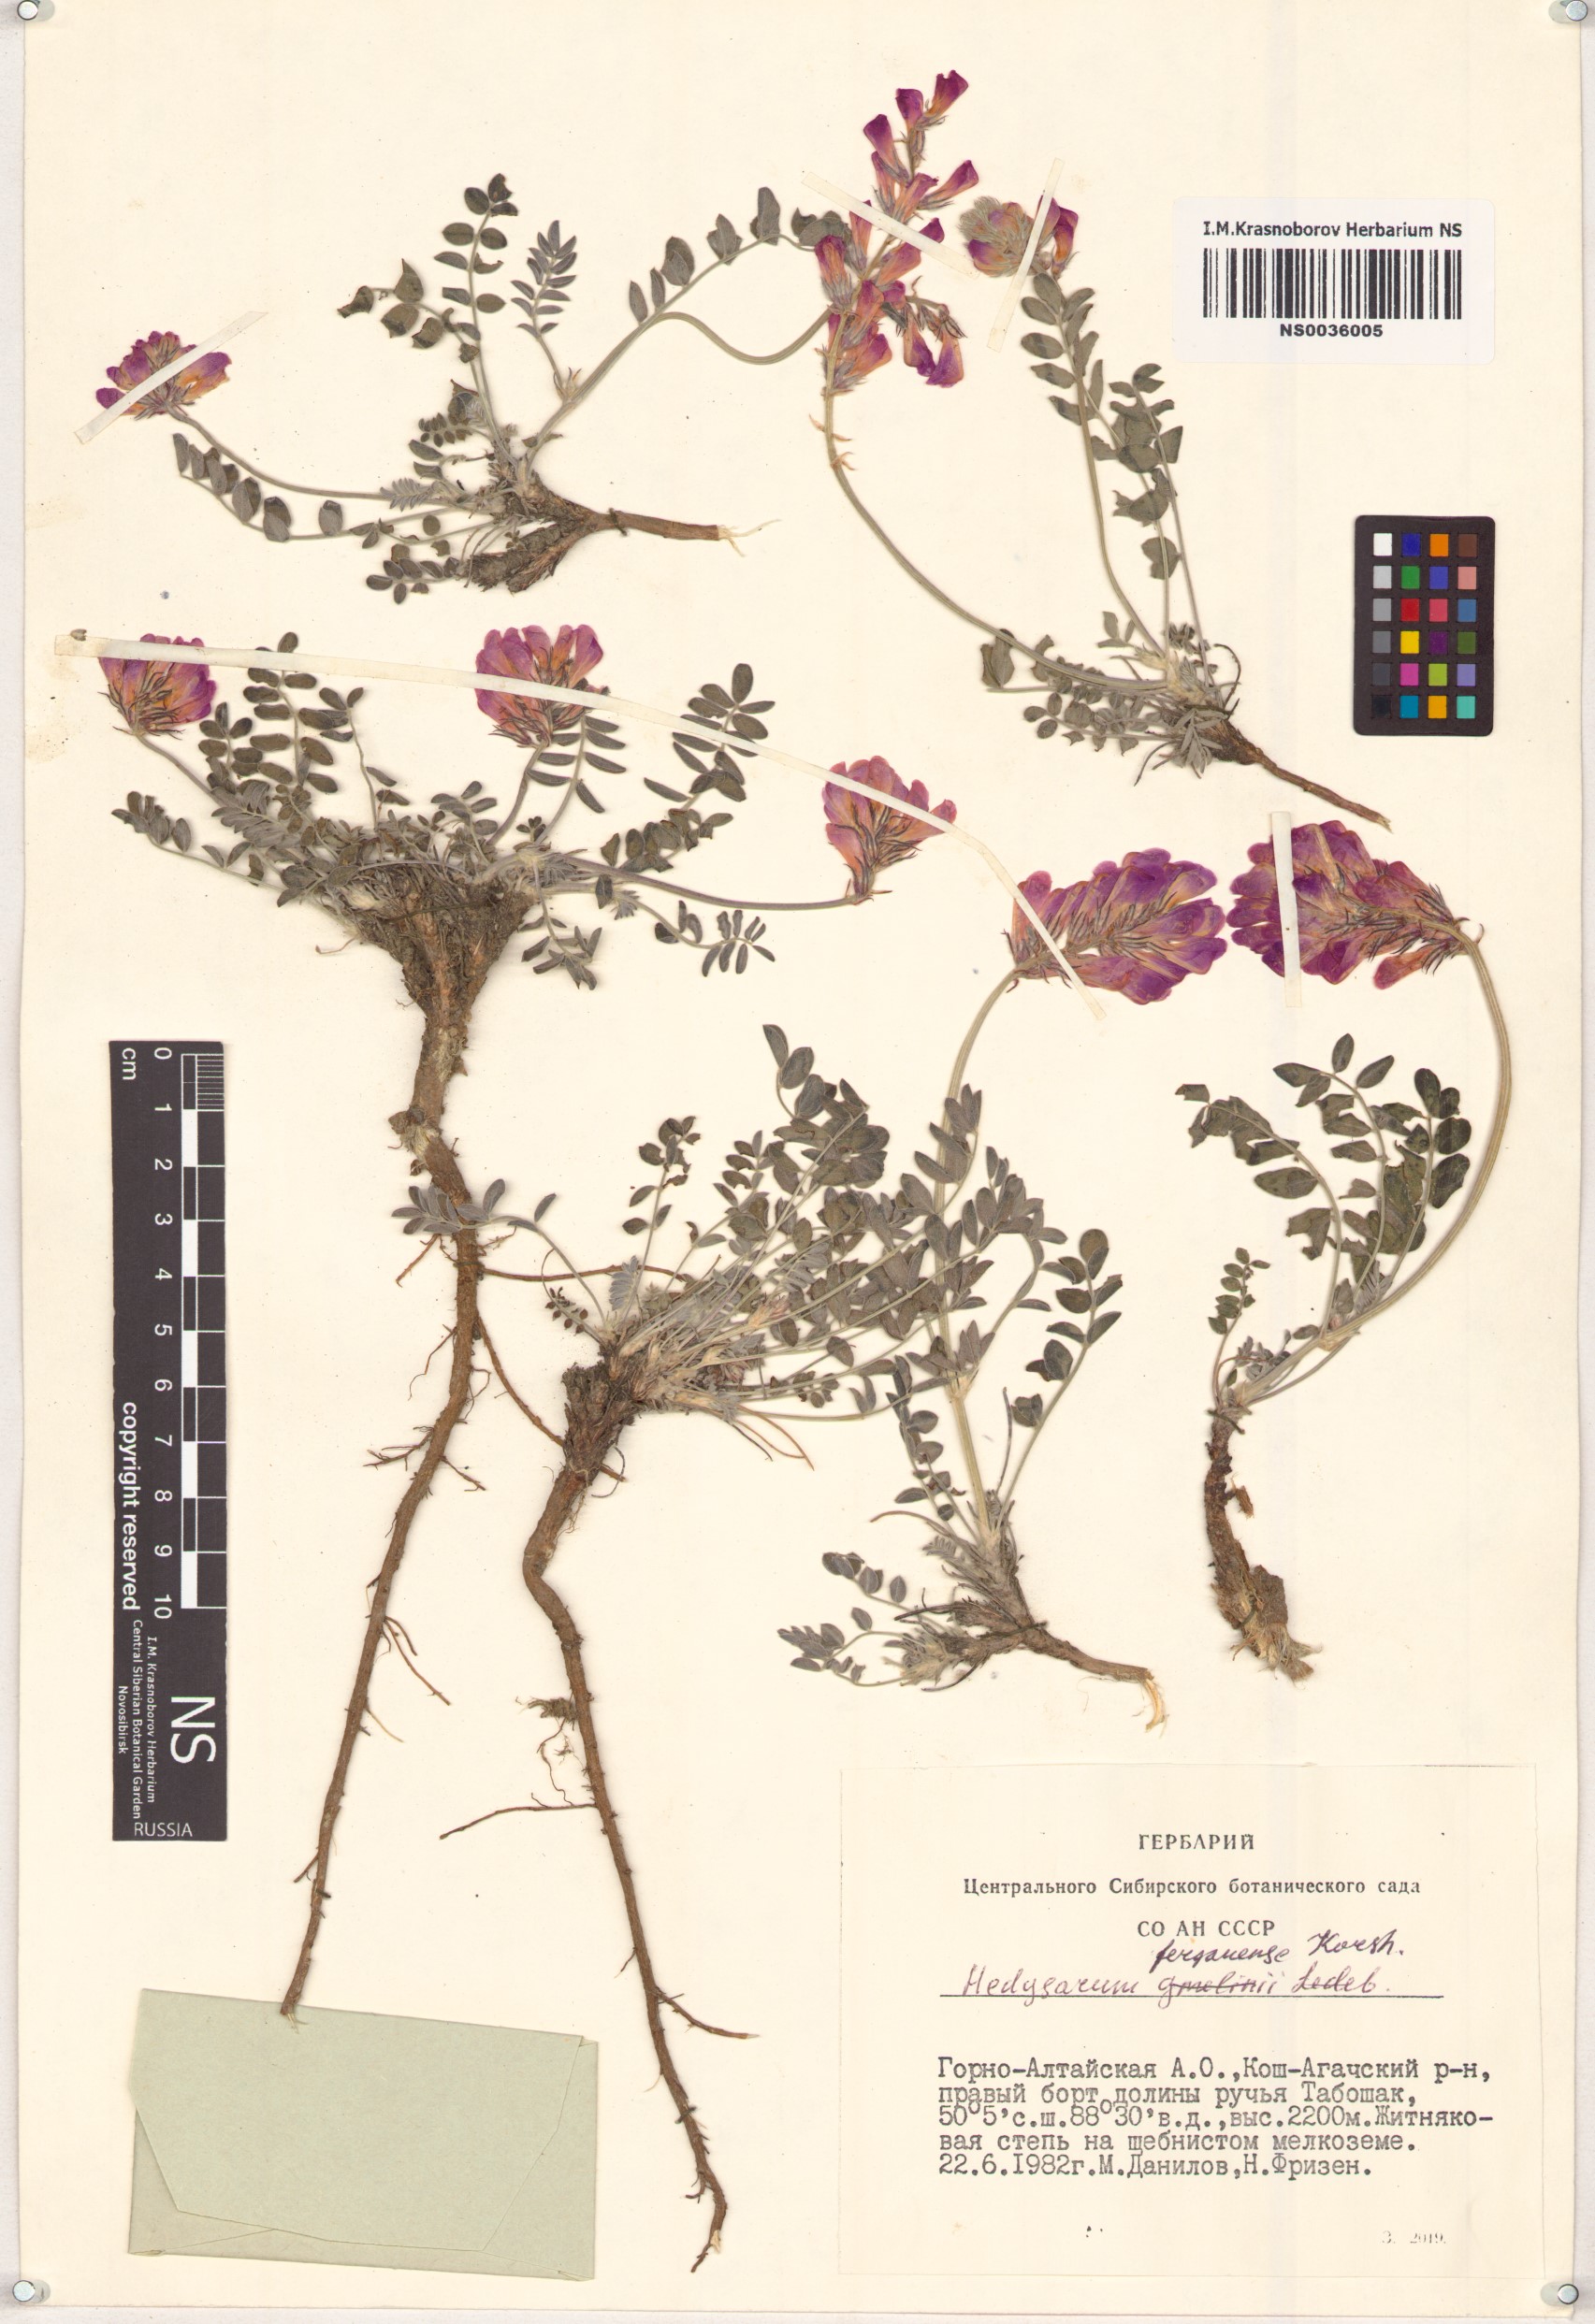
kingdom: Plantae
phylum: Tracheophyta
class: Magnoliopsida
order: Fabales
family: Fabaceae
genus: Hedysarum
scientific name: Hedysarum ferganense
